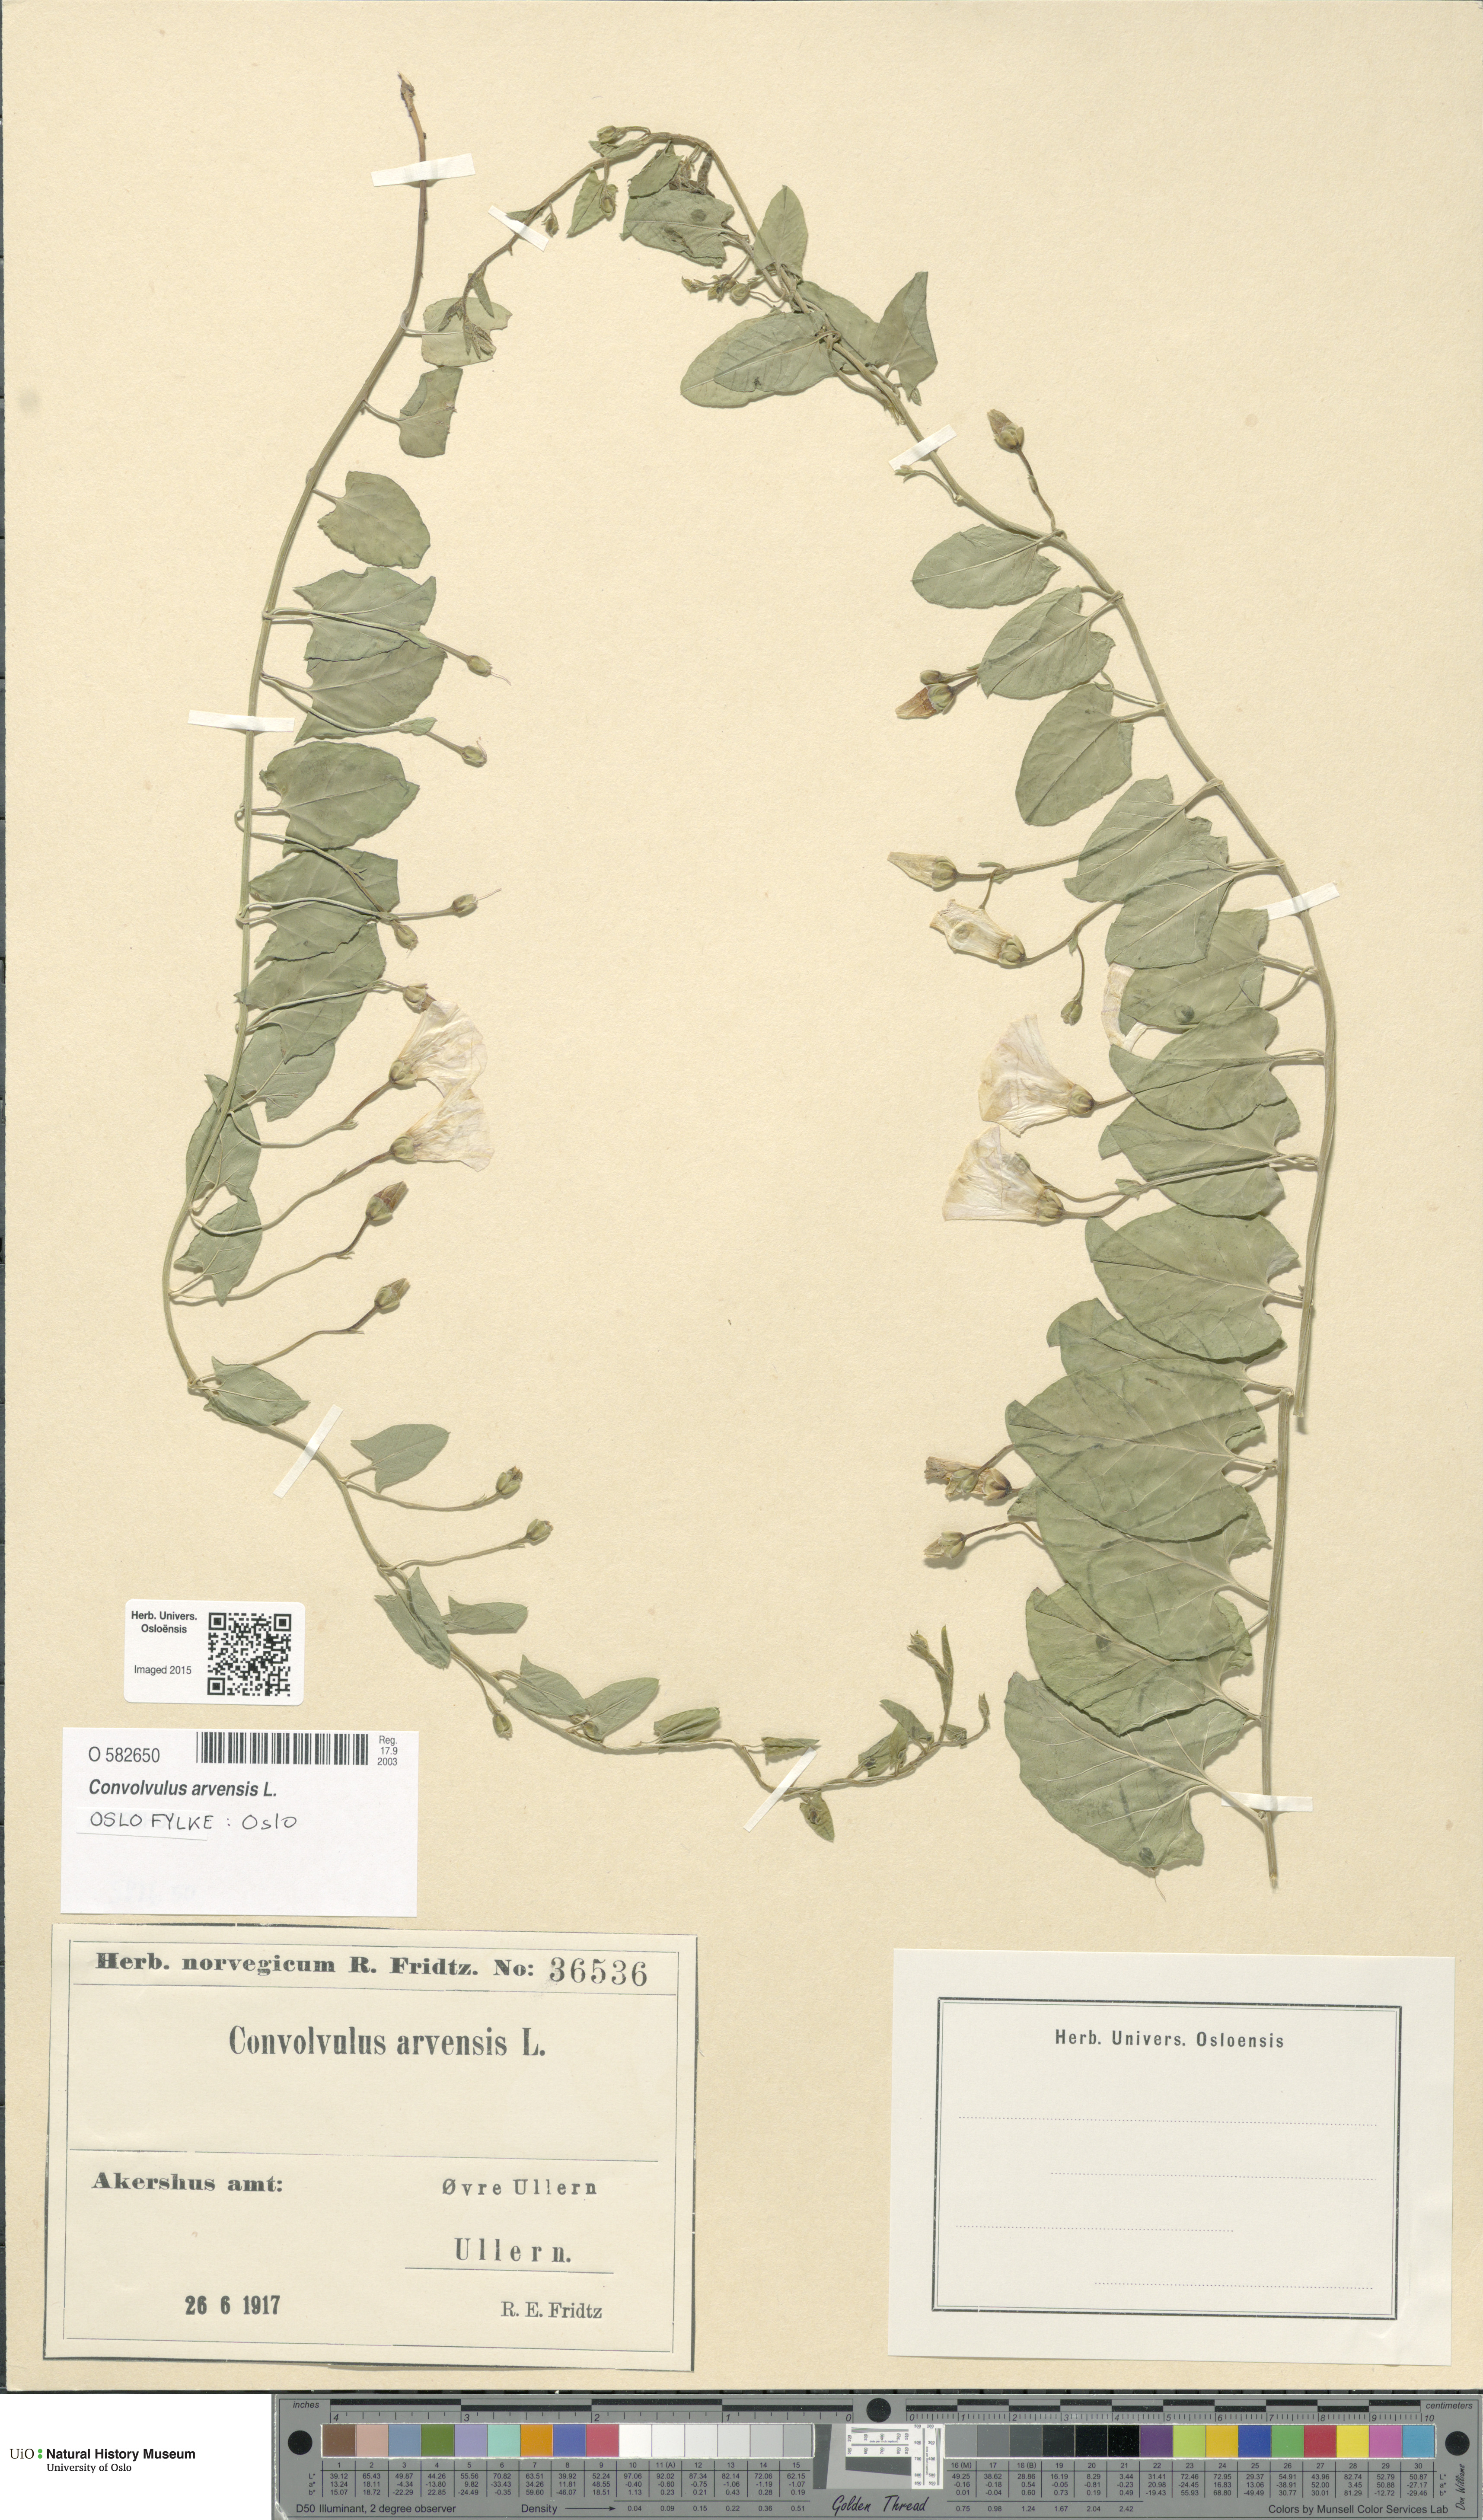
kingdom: Plantae
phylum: Tracheophyta
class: Magnoliopsida
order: Solanales
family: Convolvulaceae
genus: Convolvulus
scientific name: Convolvulus arvensis
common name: Field bindweed
